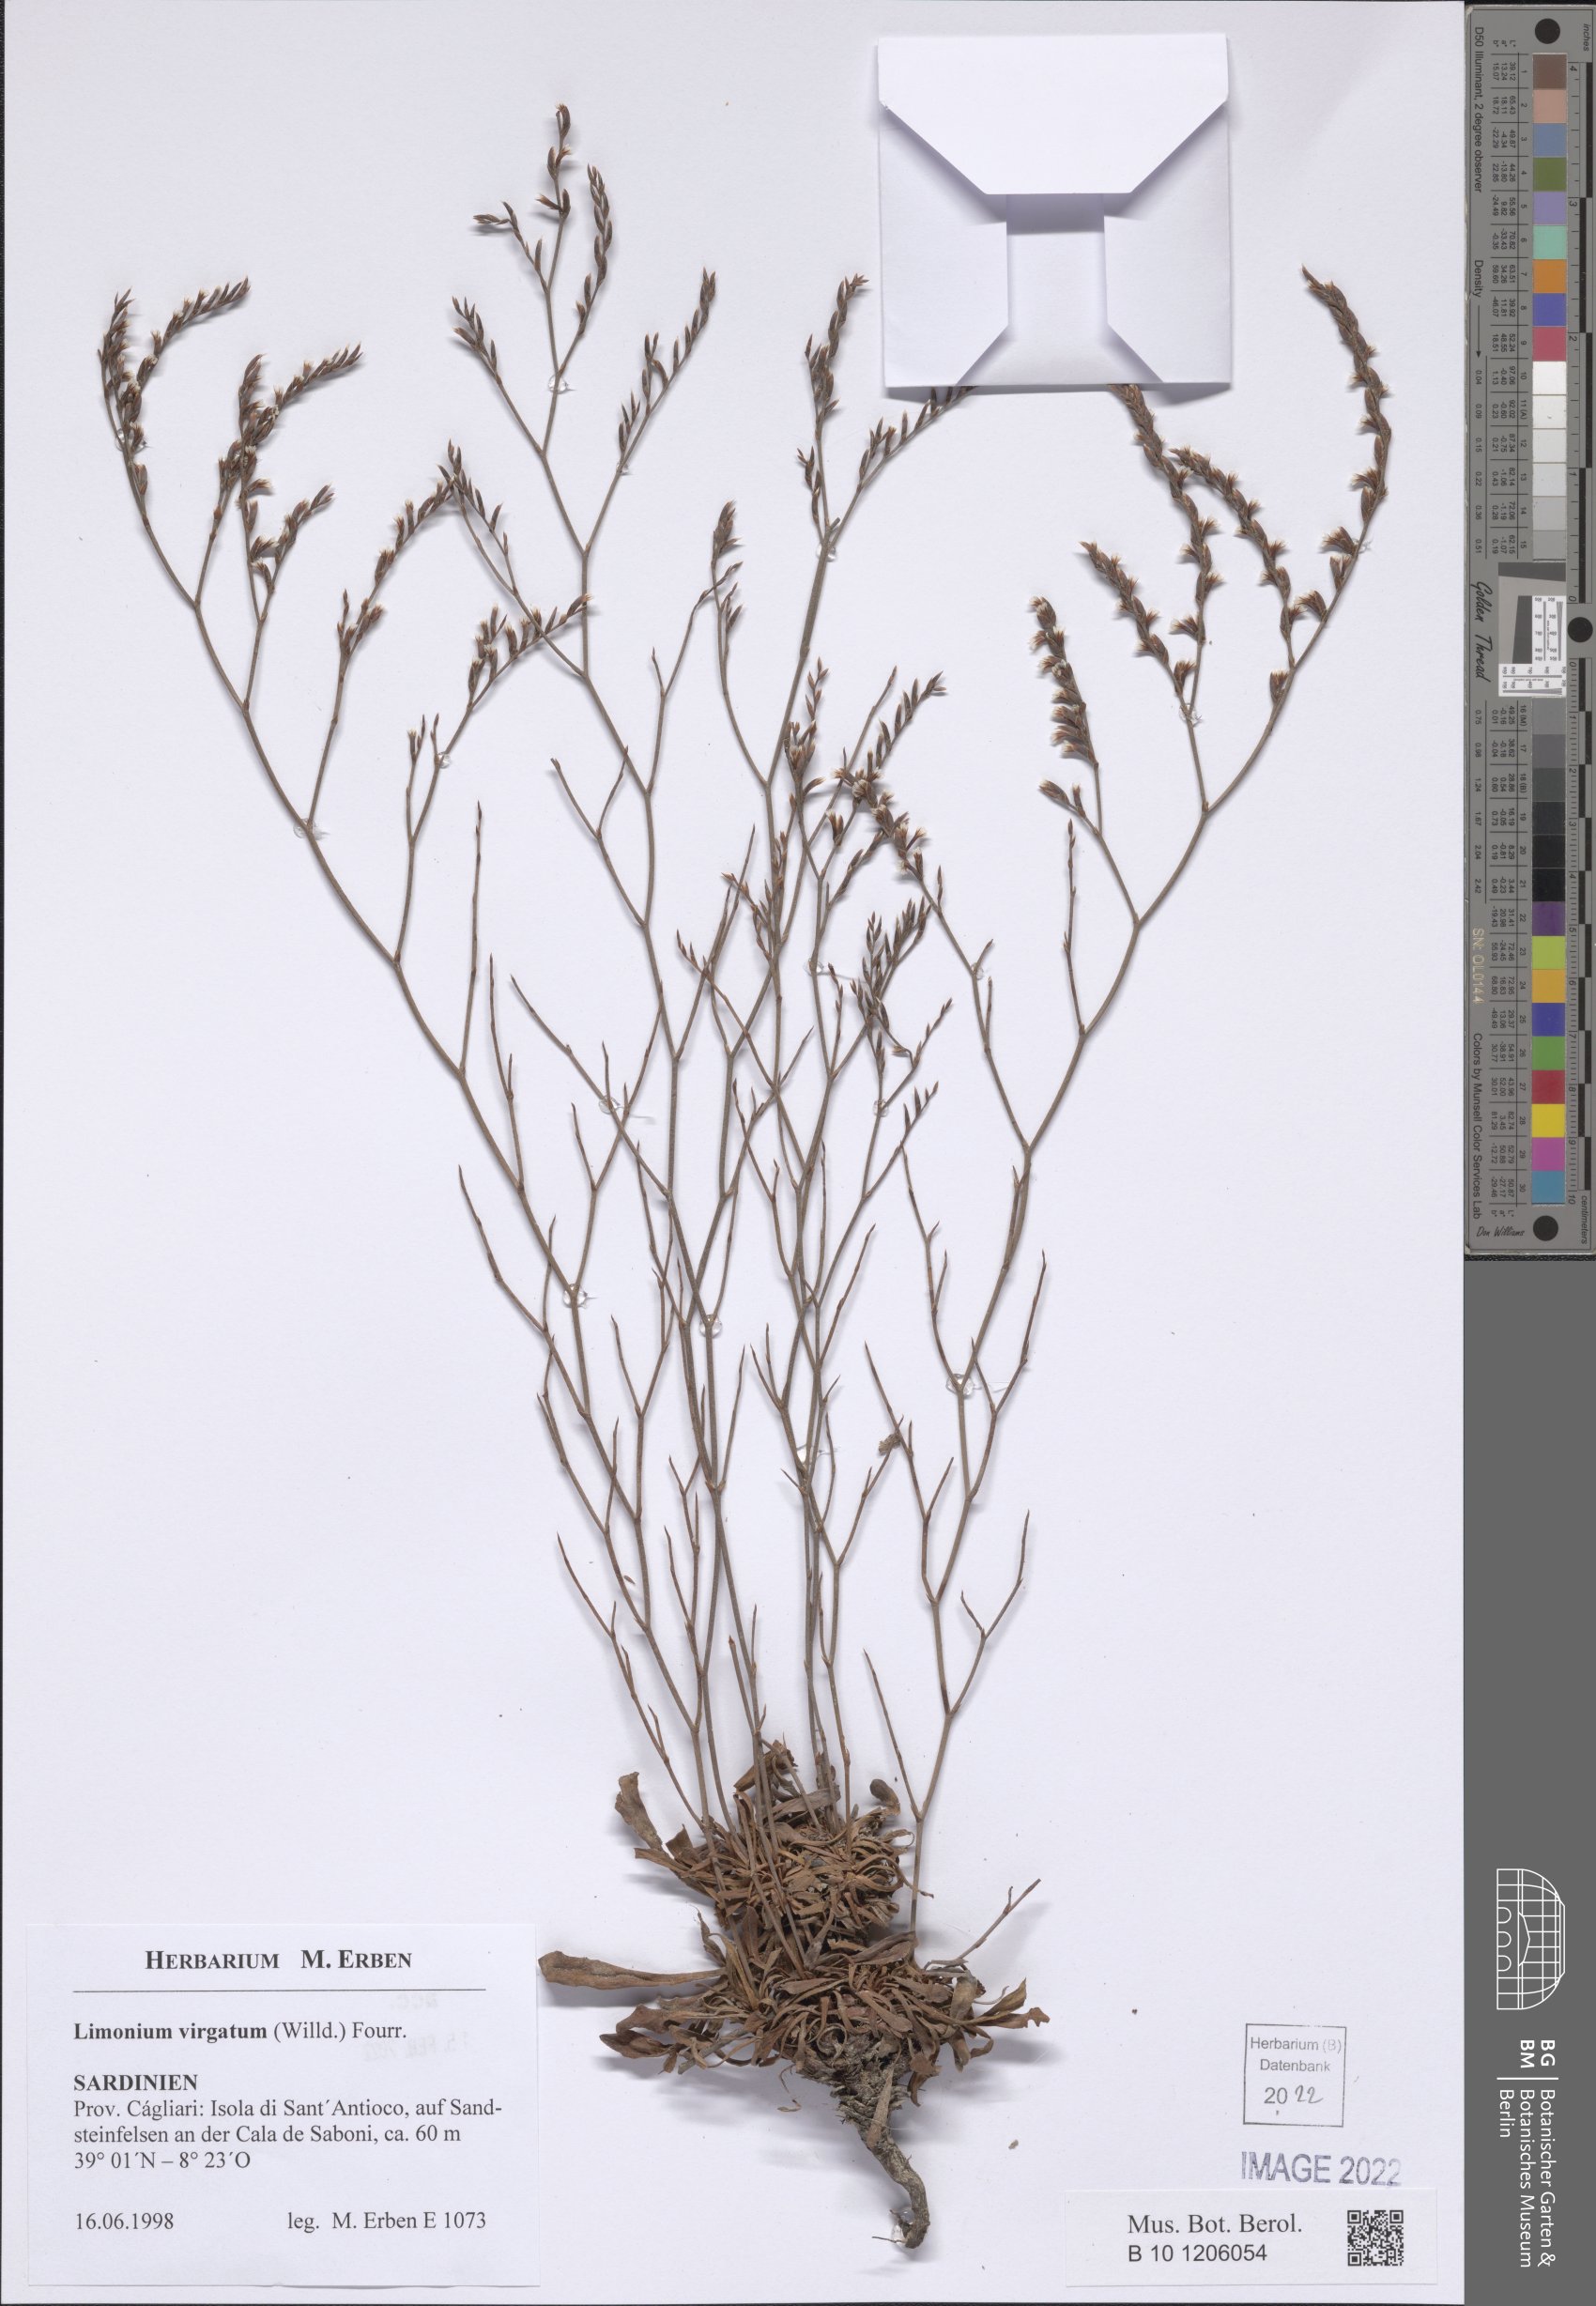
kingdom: Plantae
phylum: Tracheophyta
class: Magnoliopsida
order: Caryophyllales
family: Plumbaginaceae
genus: Limonium
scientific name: Limonium virgatum
